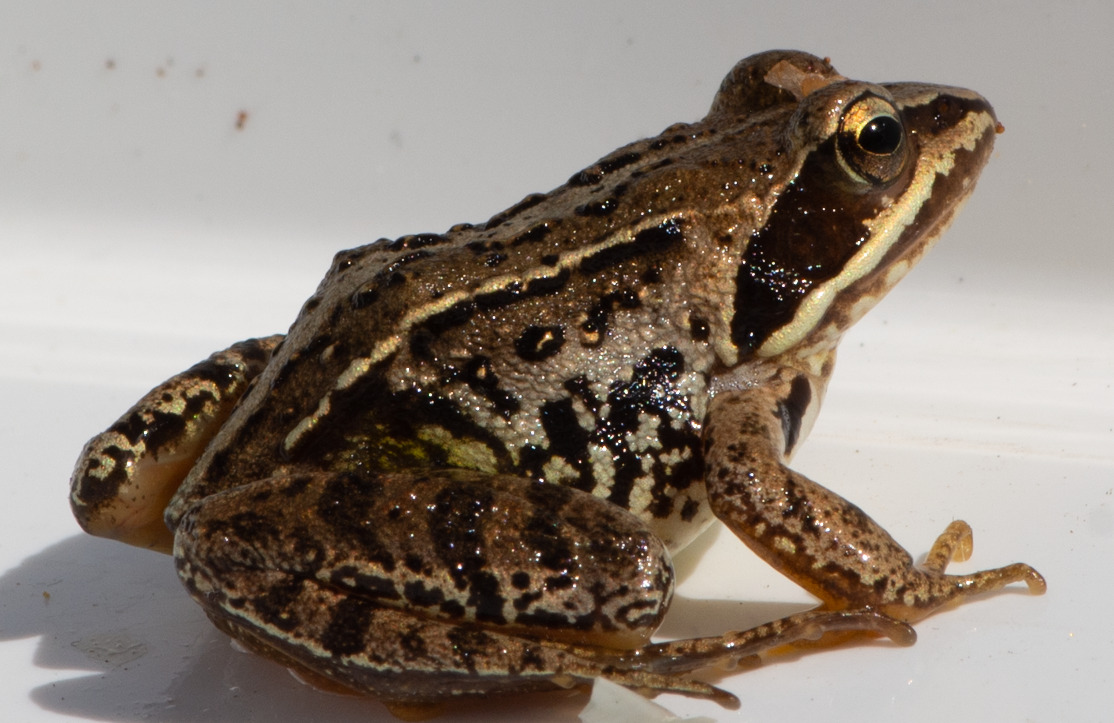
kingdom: Animalia
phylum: Chordata
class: Amphibia
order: Anura
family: Ranidae
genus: Rana
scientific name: Rana arvalis
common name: Spidssnudet frø
